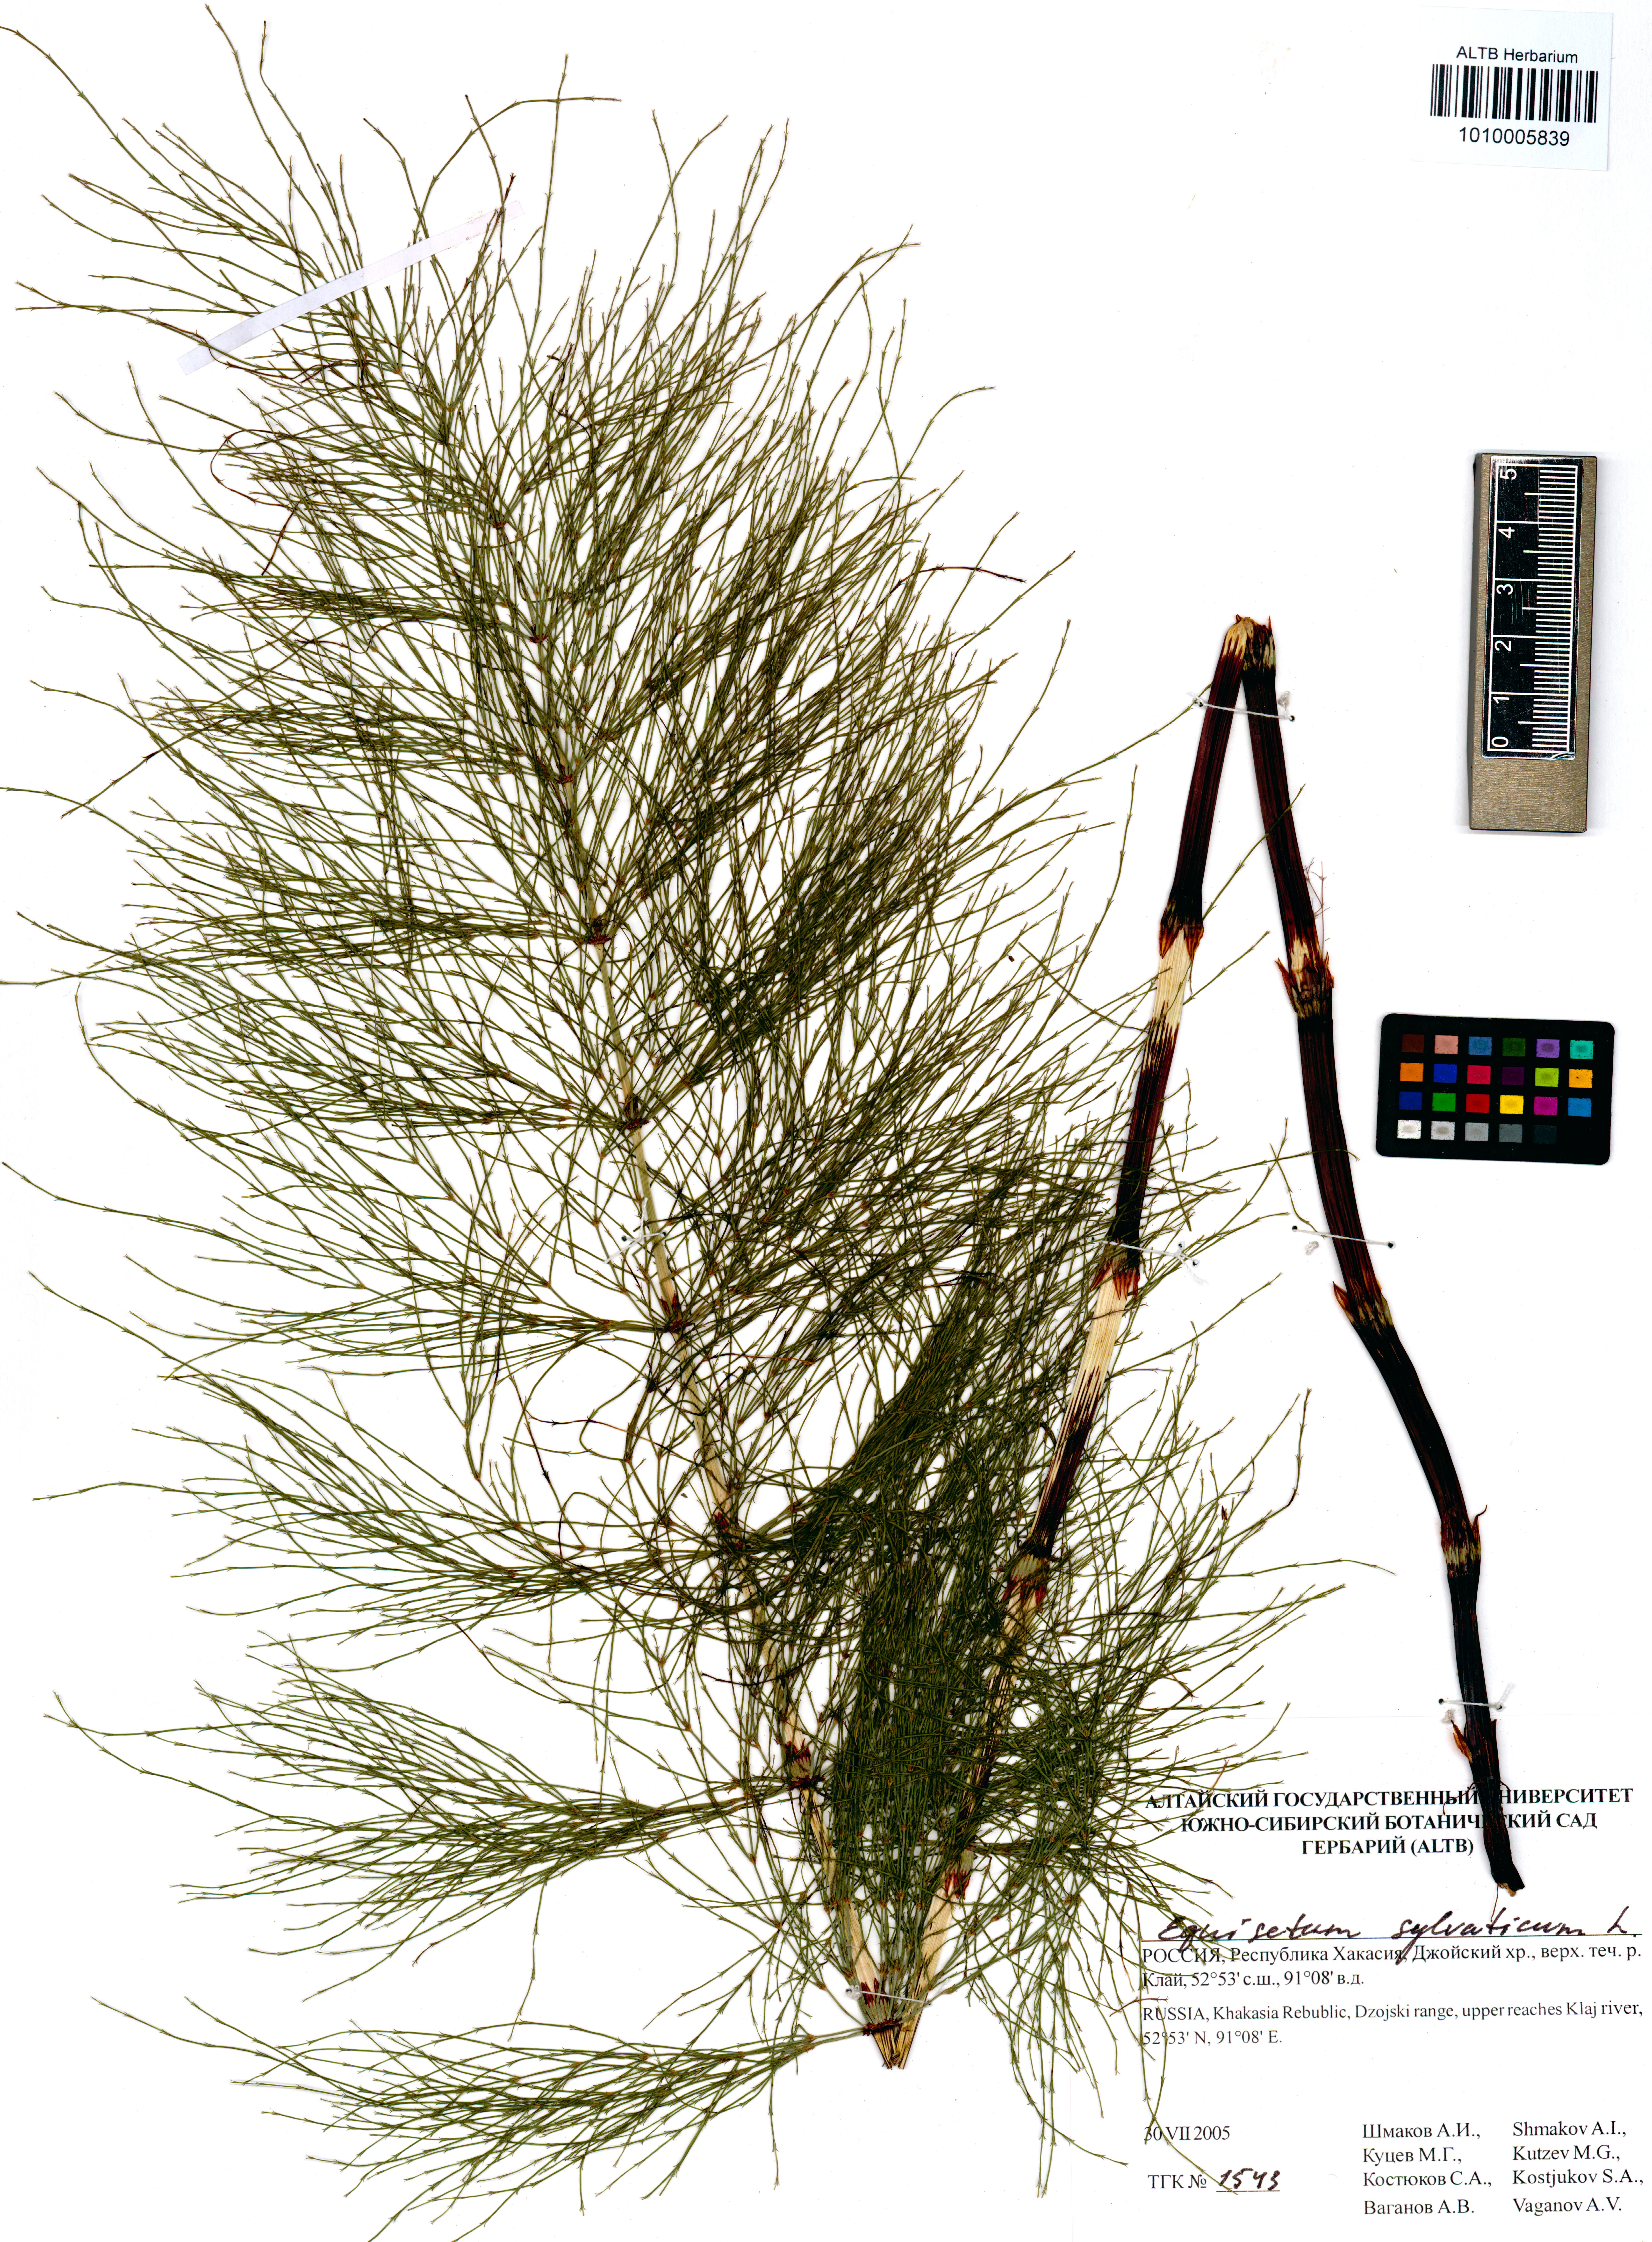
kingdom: Plantae
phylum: Tracheophyta
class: Polypodiopsida
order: Equisetales
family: Equisetaceae
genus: Equisetum
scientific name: Equisetum sylvaticum
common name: Wood horsetail
